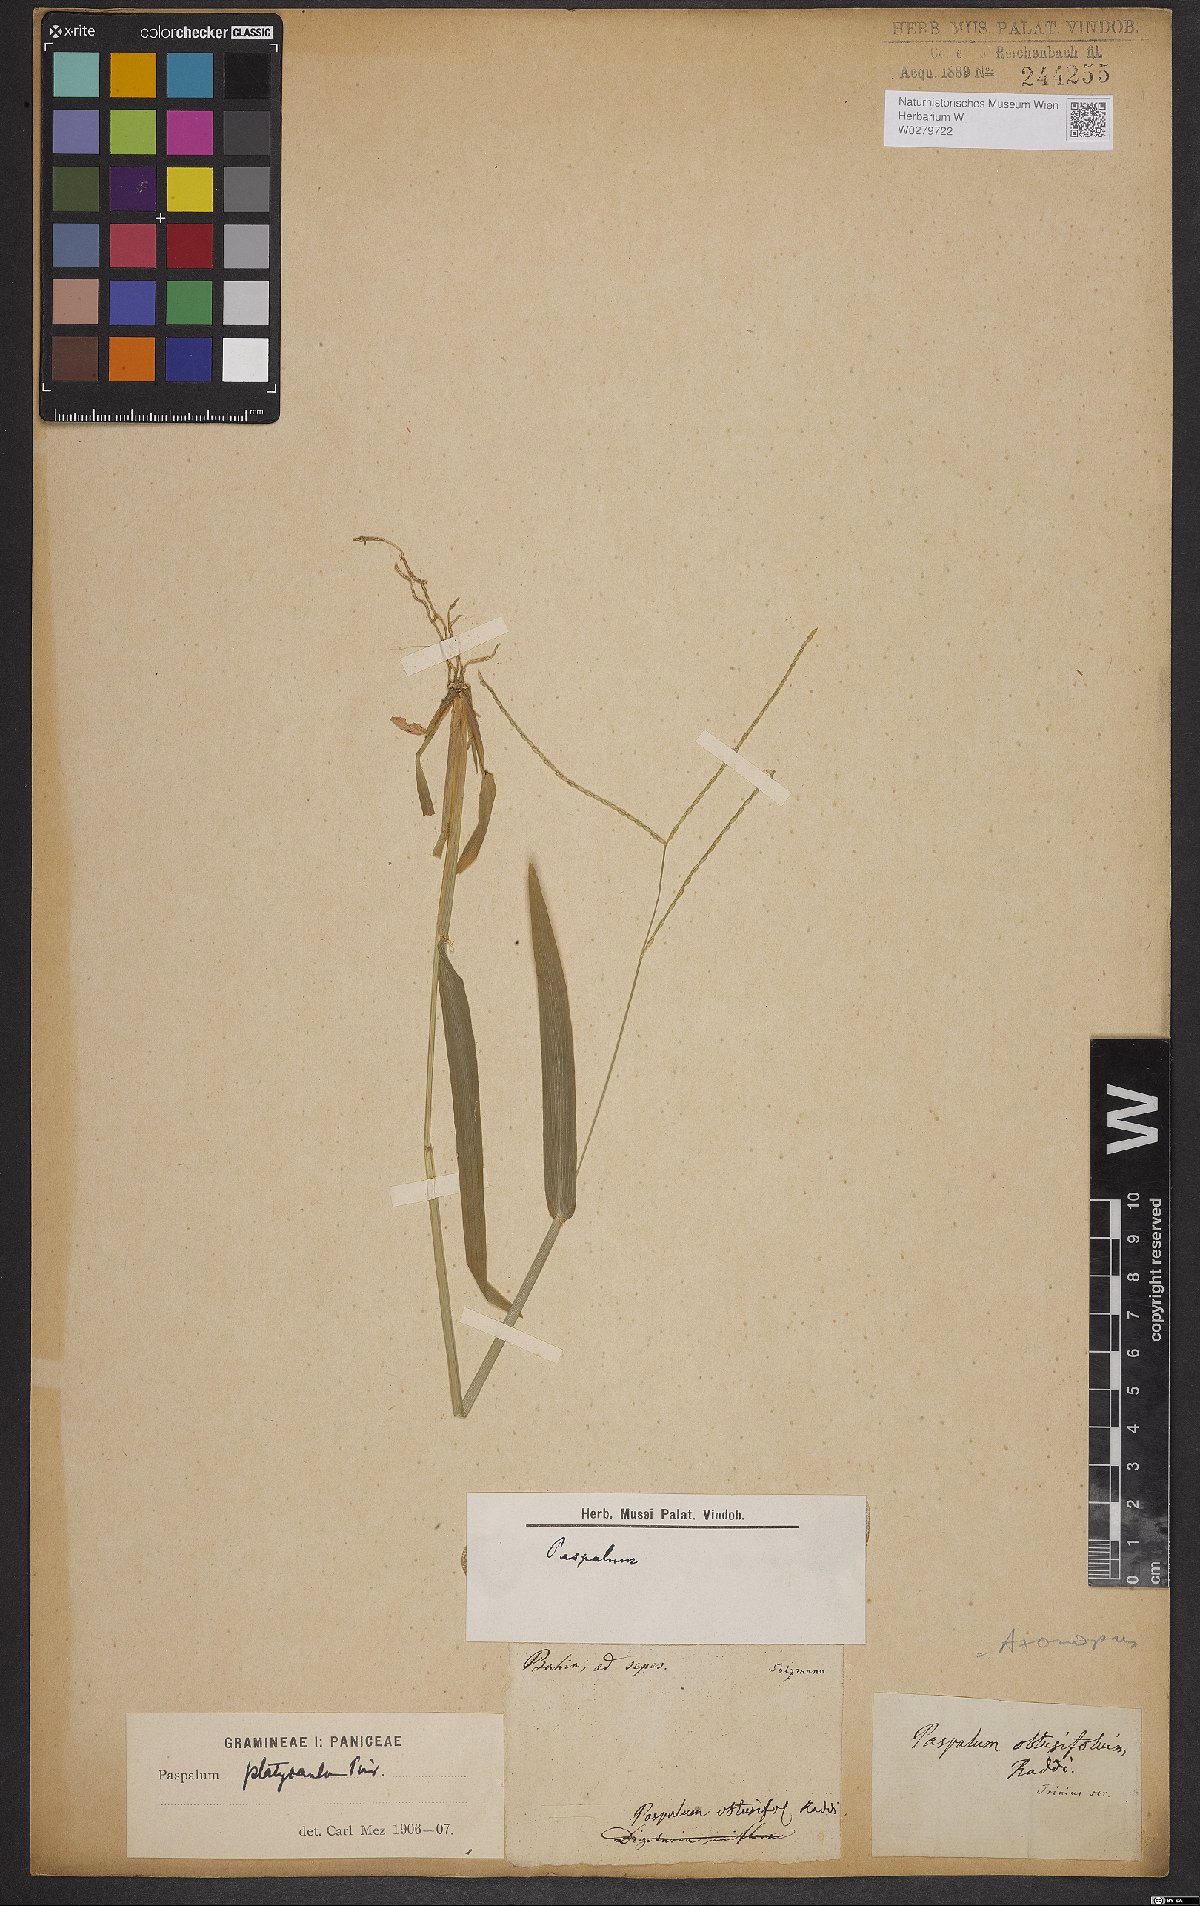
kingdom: Plantae
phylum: Tracheophyta
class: Liliopsida
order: Poales
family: Poaceae
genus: Axonopus
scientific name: Axonopus compressus
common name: American carpet grass
